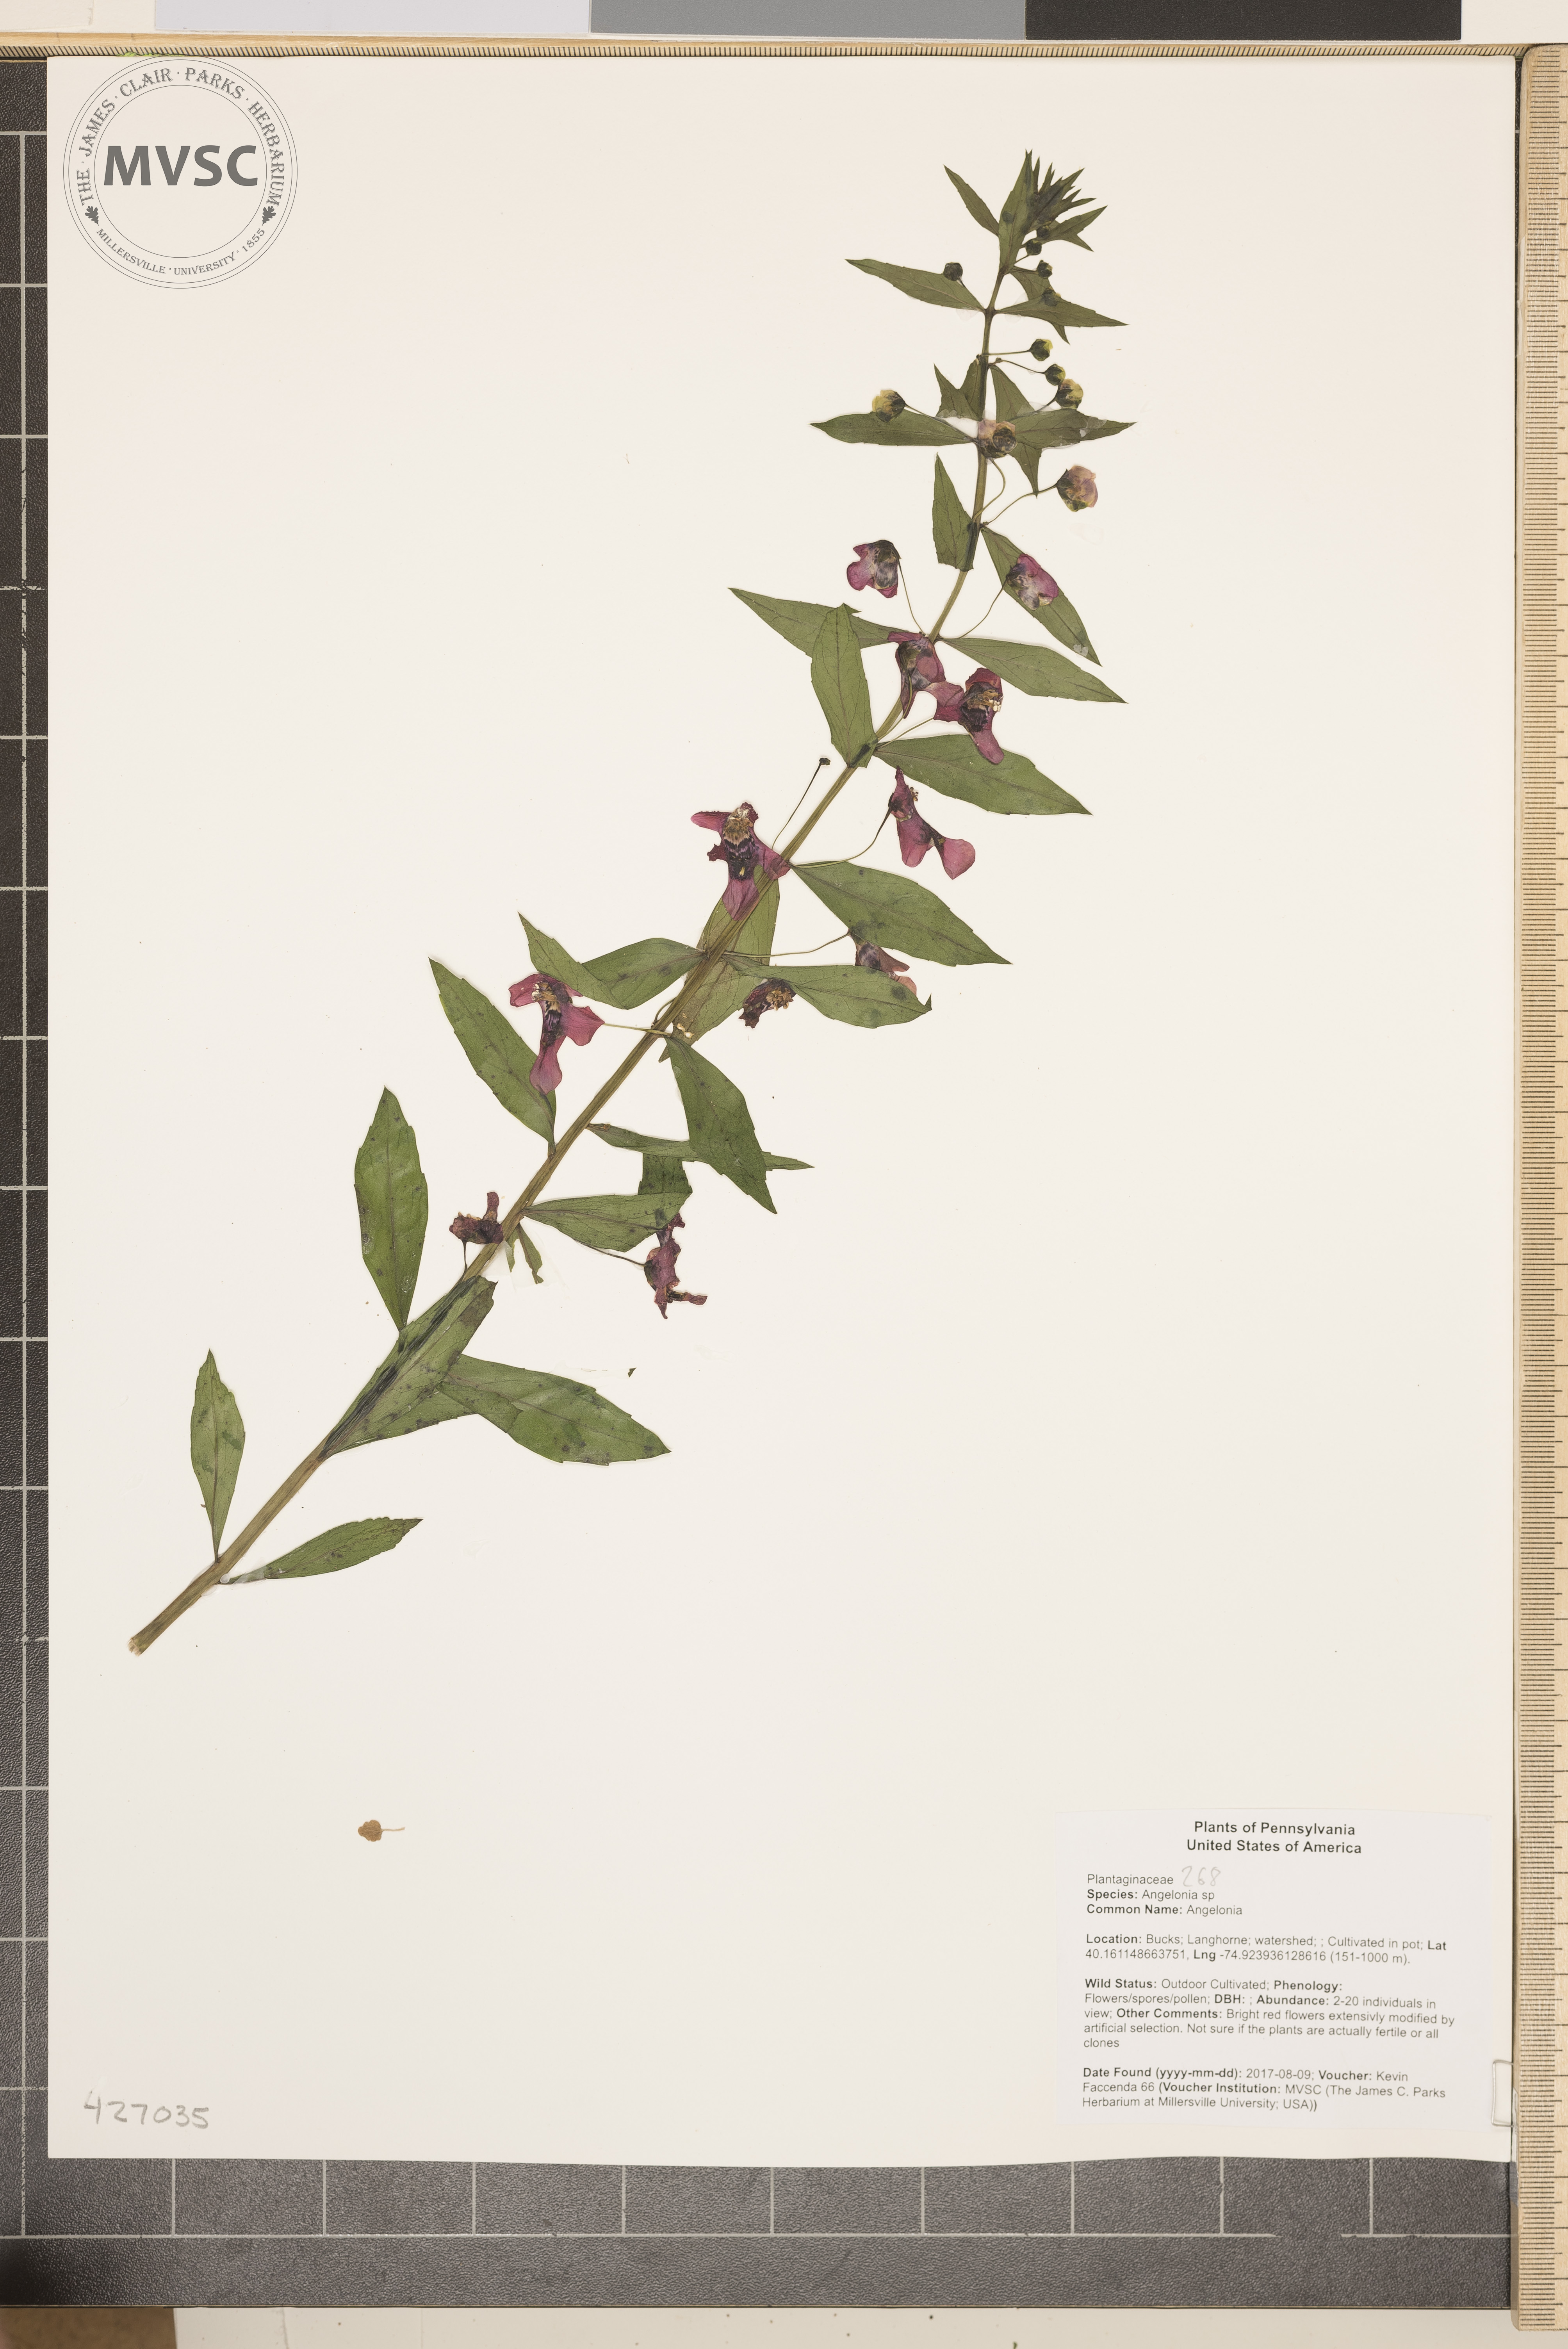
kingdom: Plantae
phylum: Tracheophyta
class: Magnoliopsida
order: Lamiales
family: Plantaginaceae
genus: Angelonia
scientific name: Angelonia
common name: Angelonia
